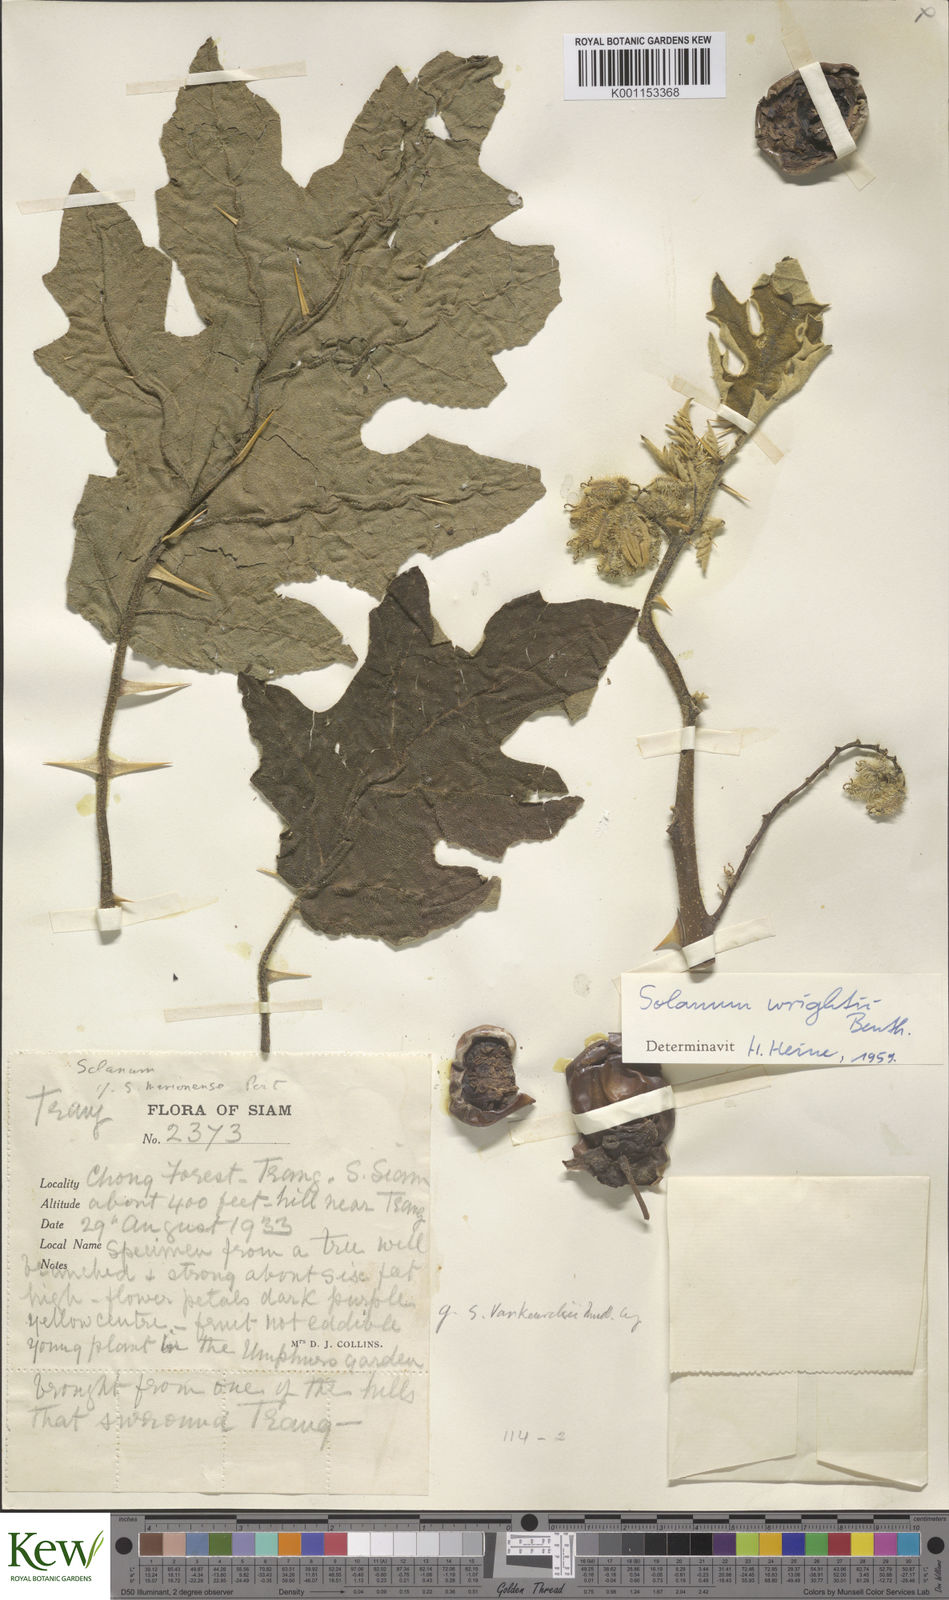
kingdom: Plantae
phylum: Tracheophyta
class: Magnoliopsida
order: Solanales
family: Solanaceae
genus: Solanum
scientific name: Solanum wrightii
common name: Brazilian potato-tree
